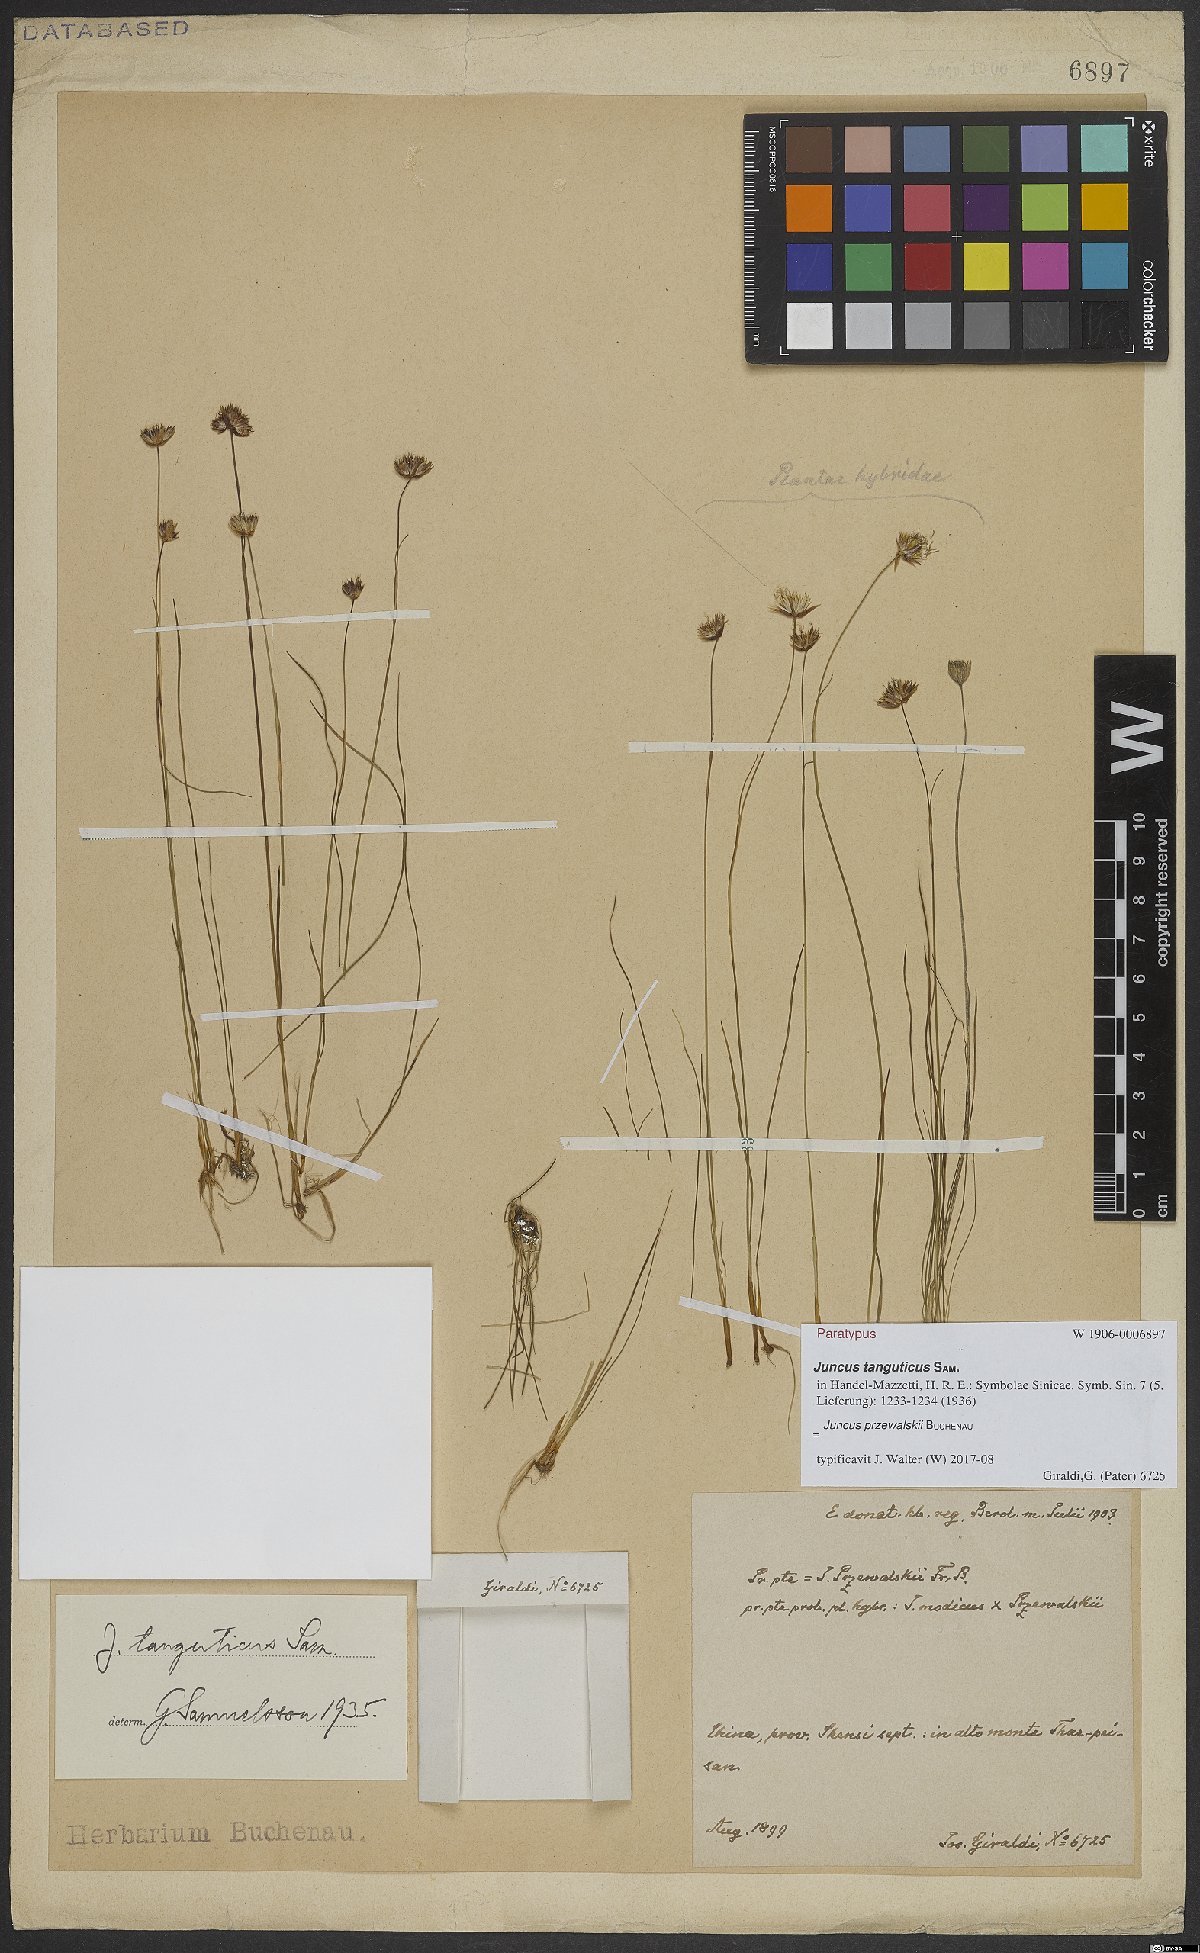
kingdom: Plantae
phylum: Tracheophyta
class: Liliopsida
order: Poales
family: Juncaceae
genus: Juncus
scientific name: Juncus przewalskii
